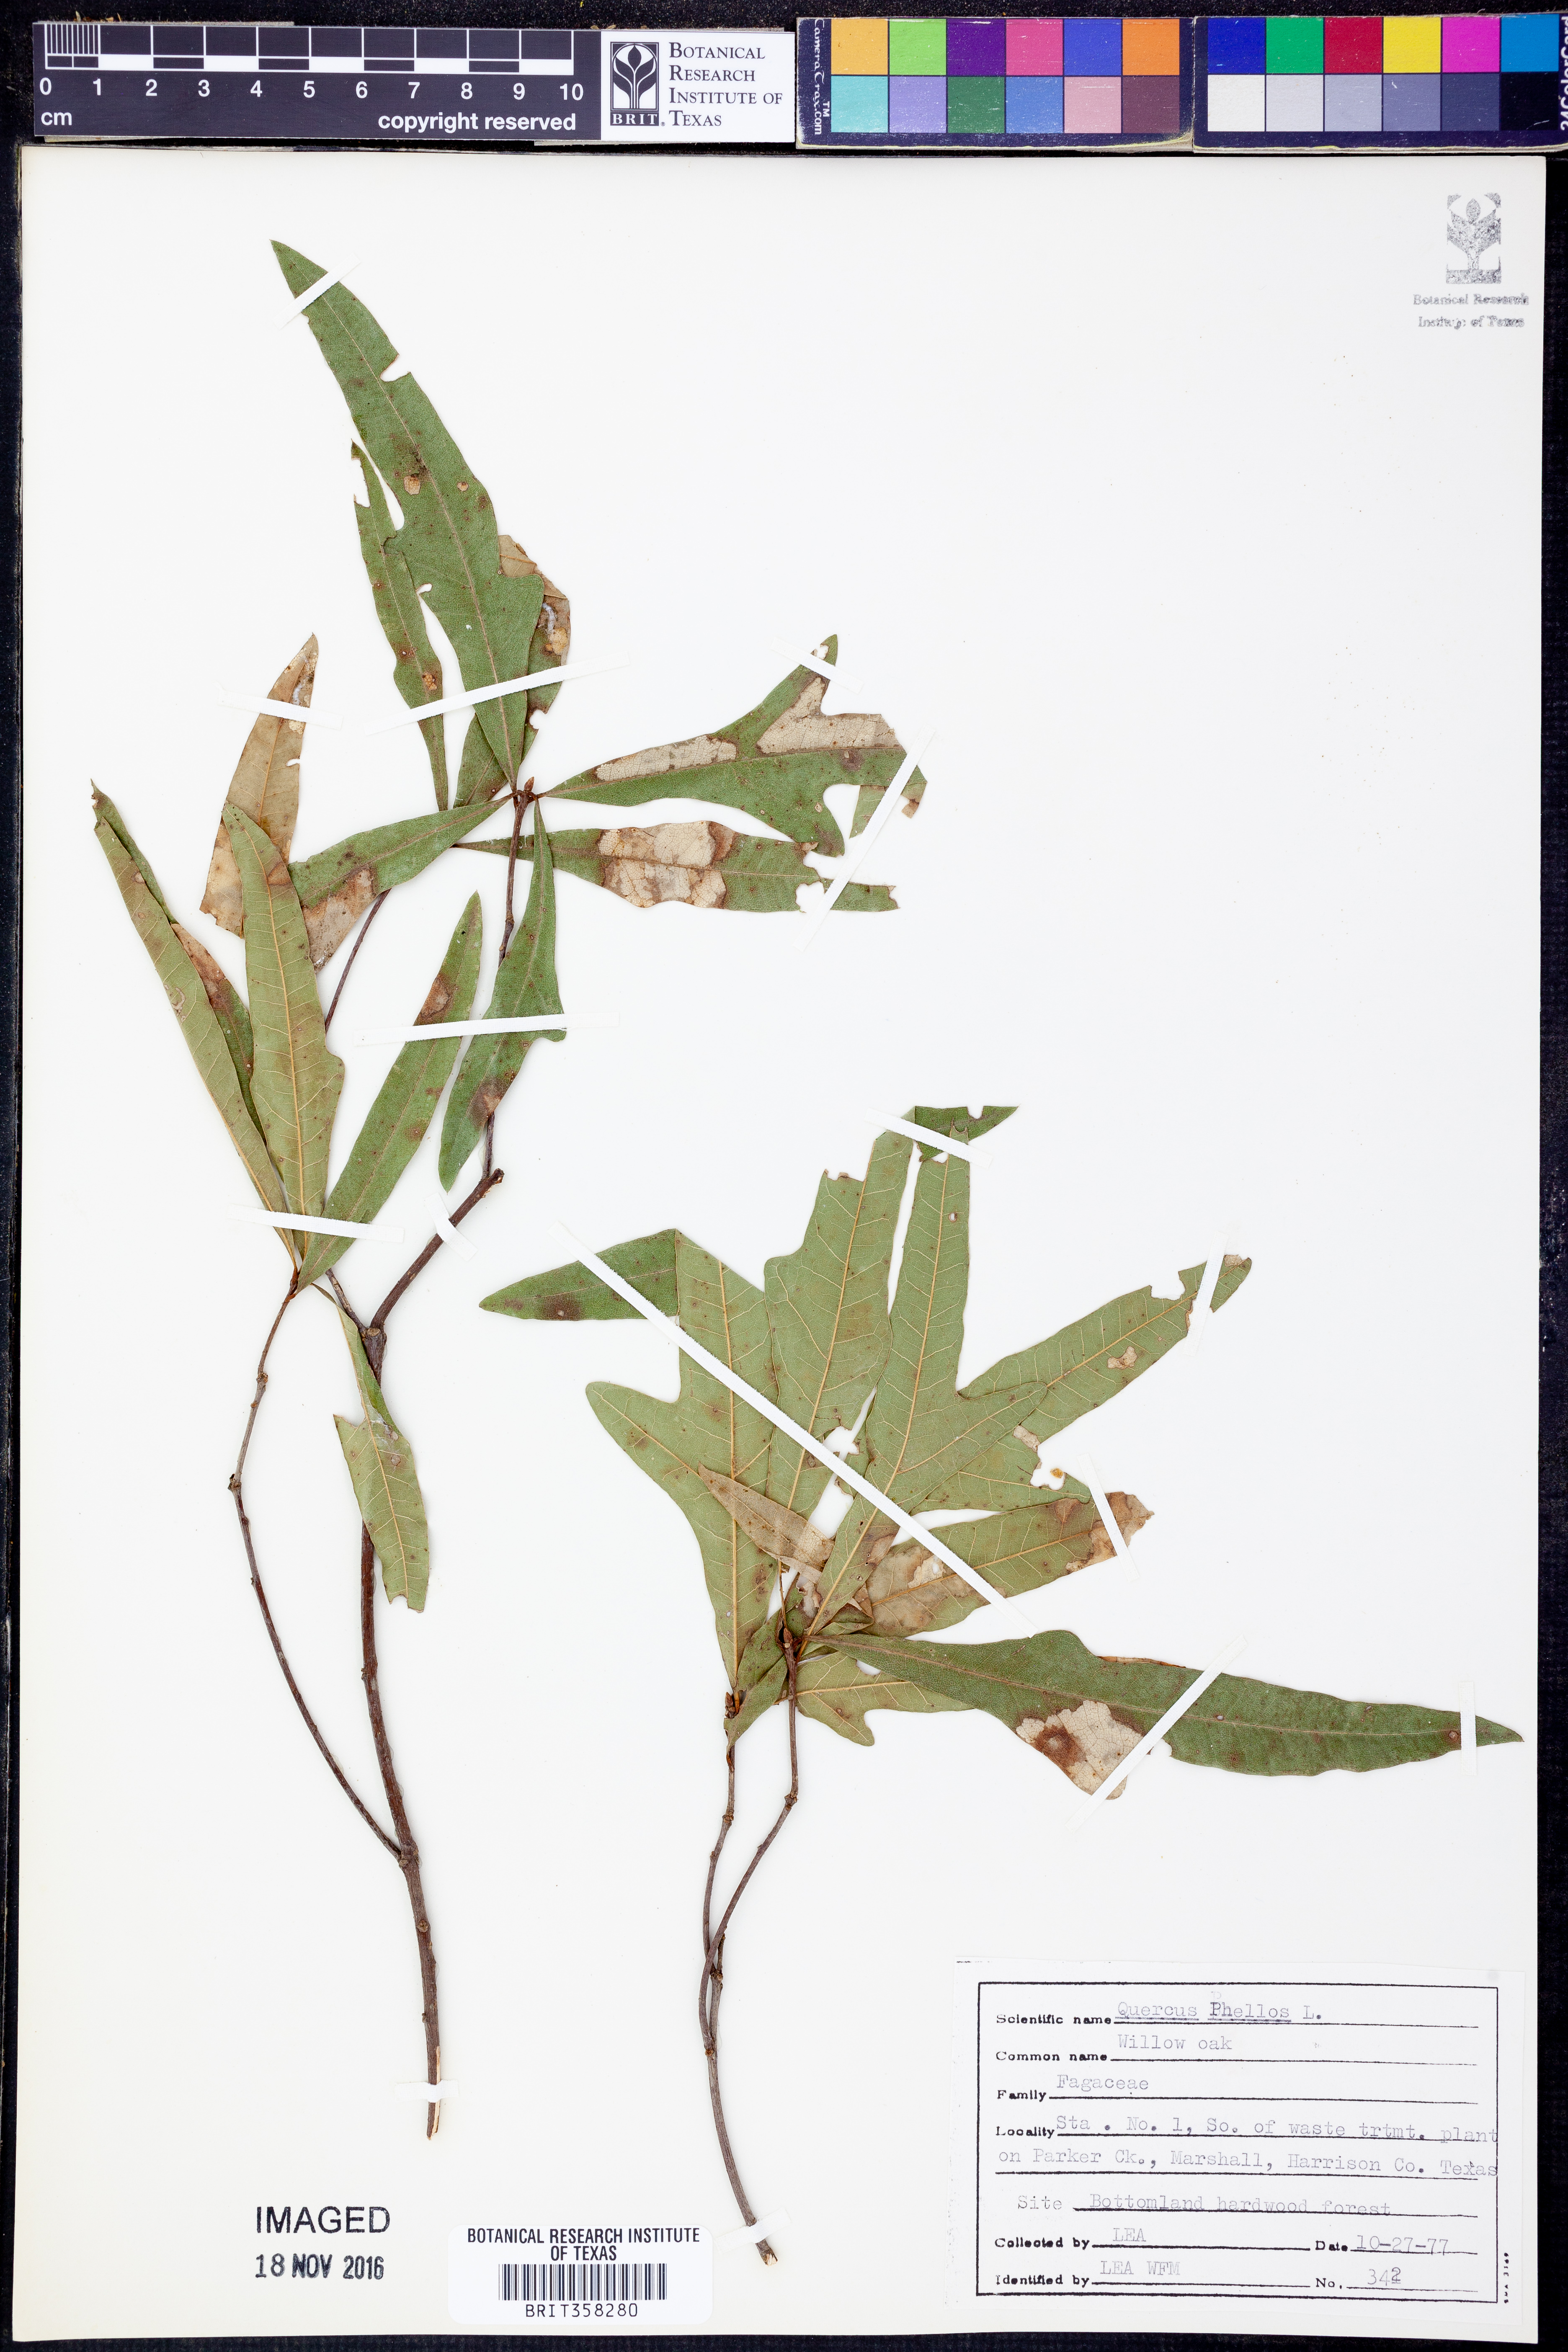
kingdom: Plantae
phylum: Tracheophyta
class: Magnoliopsida
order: Fagales
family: Fagaceae
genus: Quercus
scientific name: Quercus phellos
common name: Willow oak
